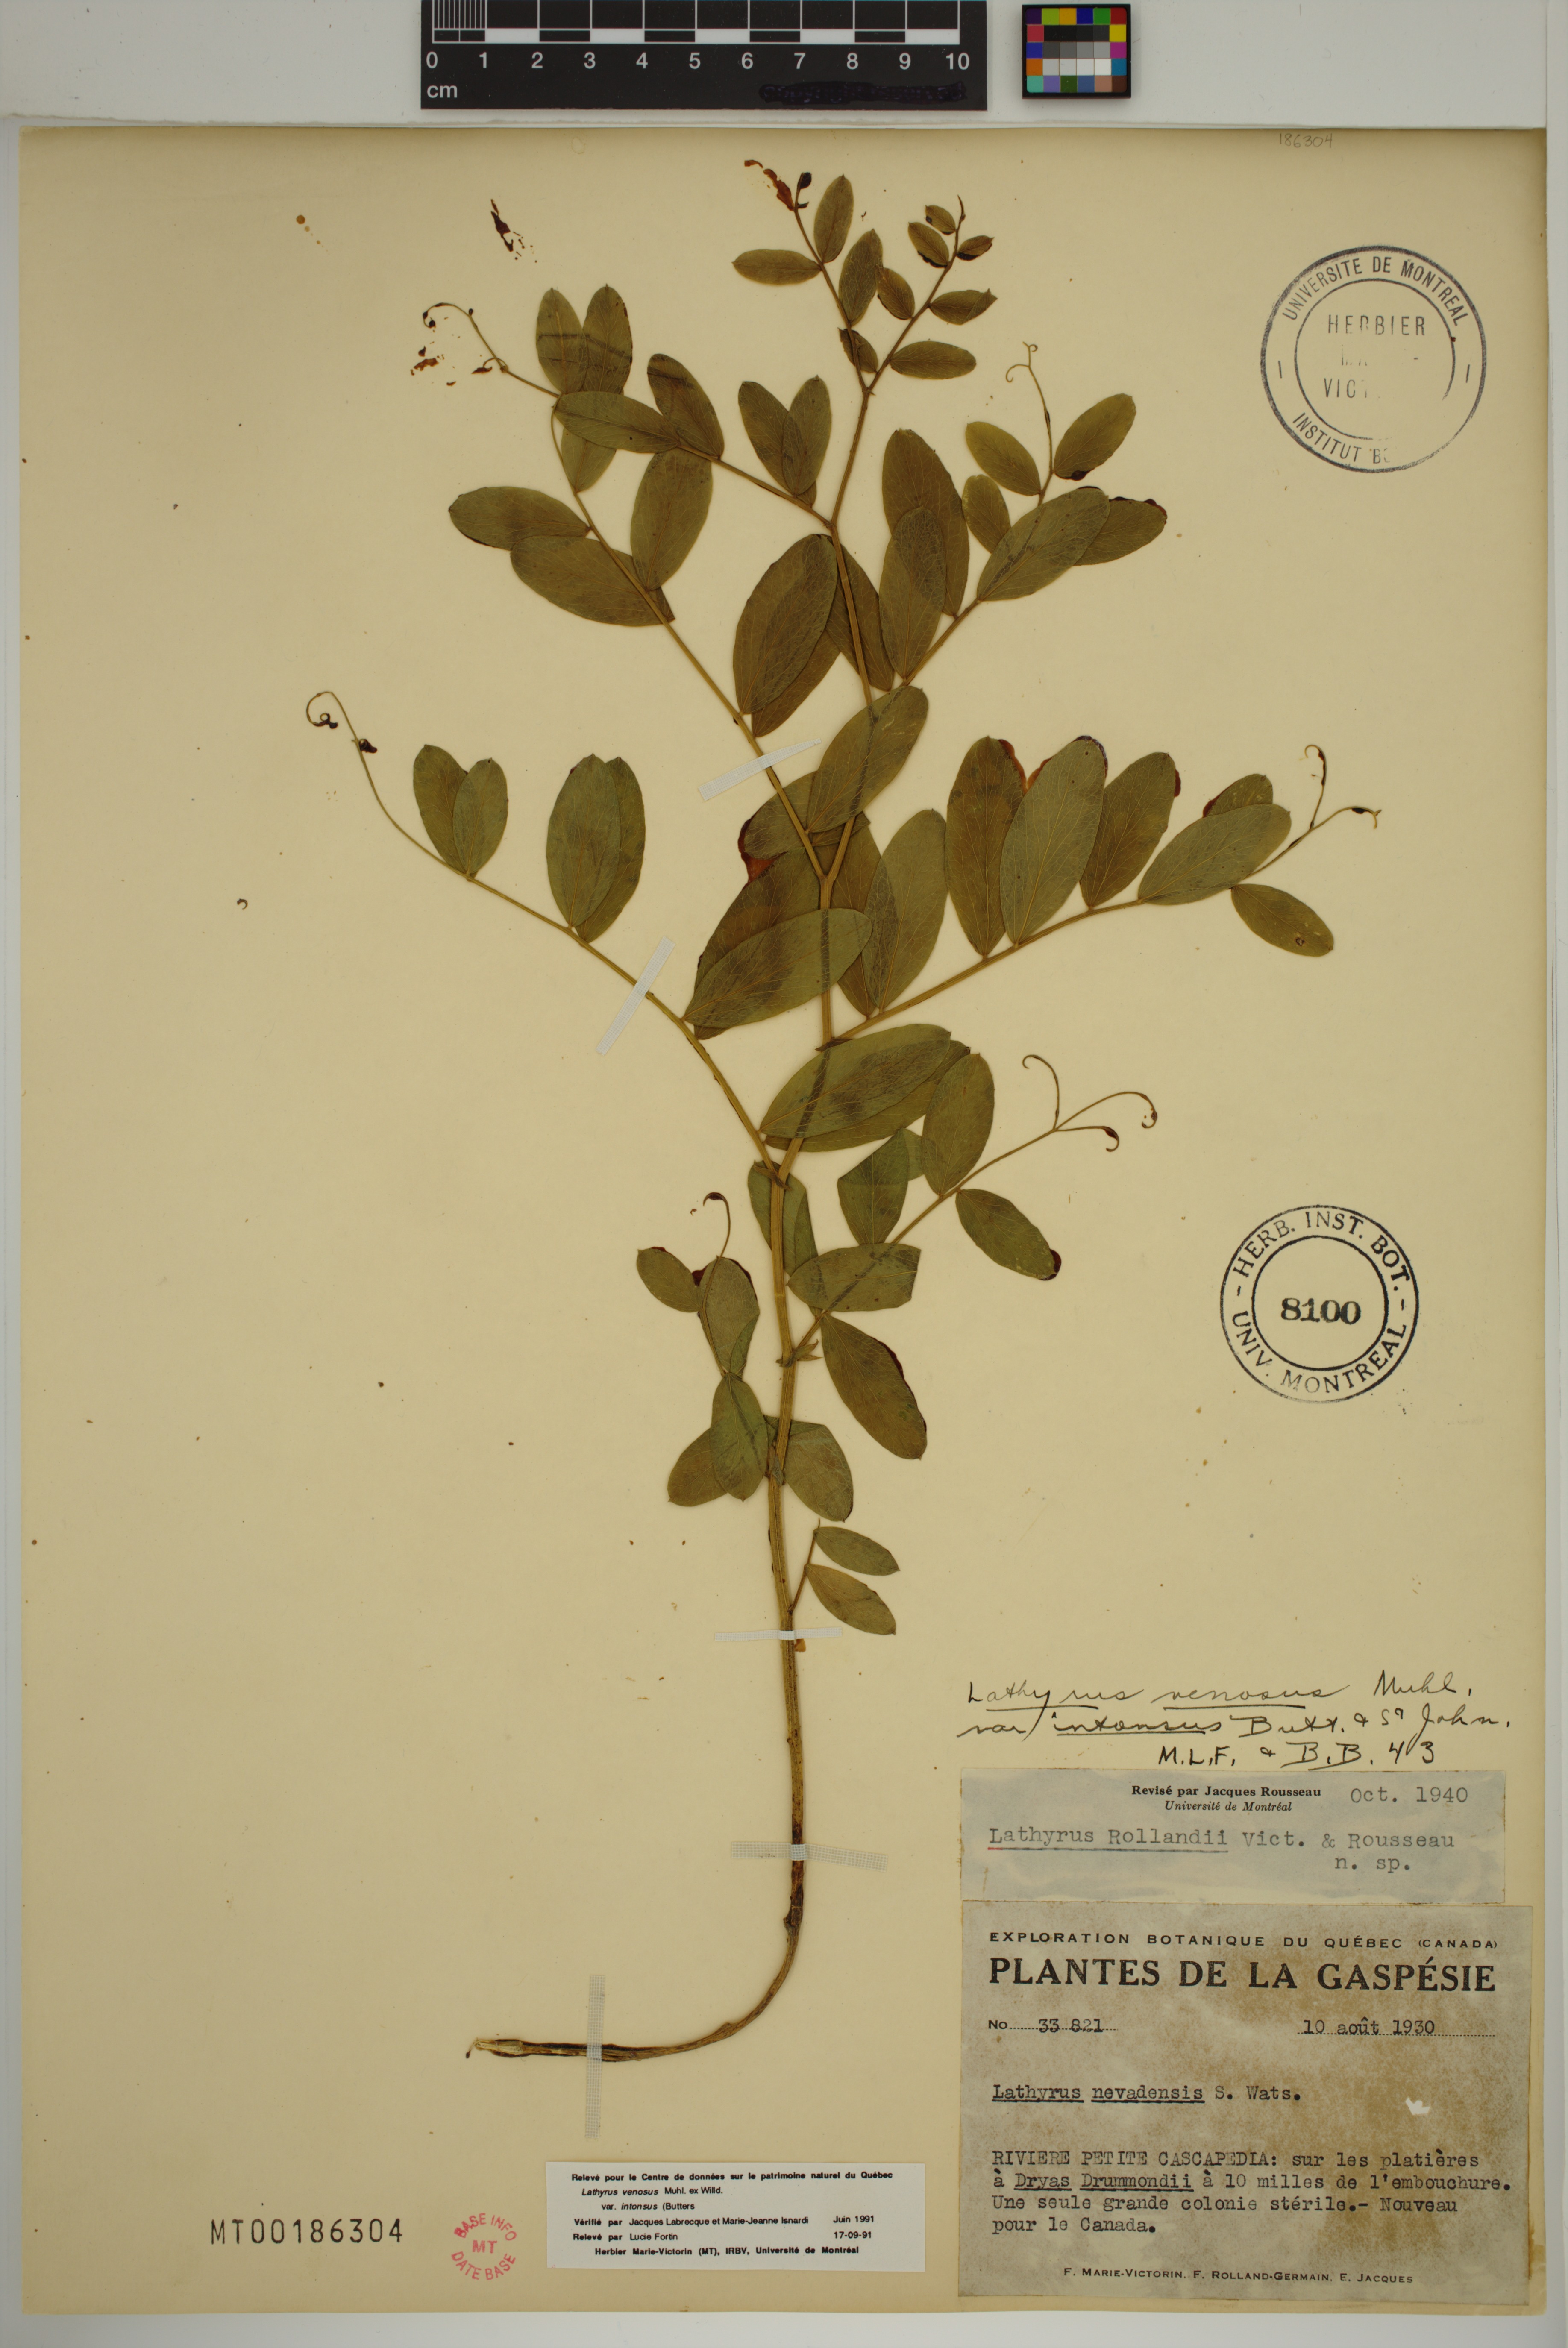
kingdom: Plantae
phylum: Tracheophyta
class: Magnoliopsida
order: Fabales
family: Fabaceae
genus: Lathyrus
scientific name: Lathyrus venosus
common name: Forest-pea
